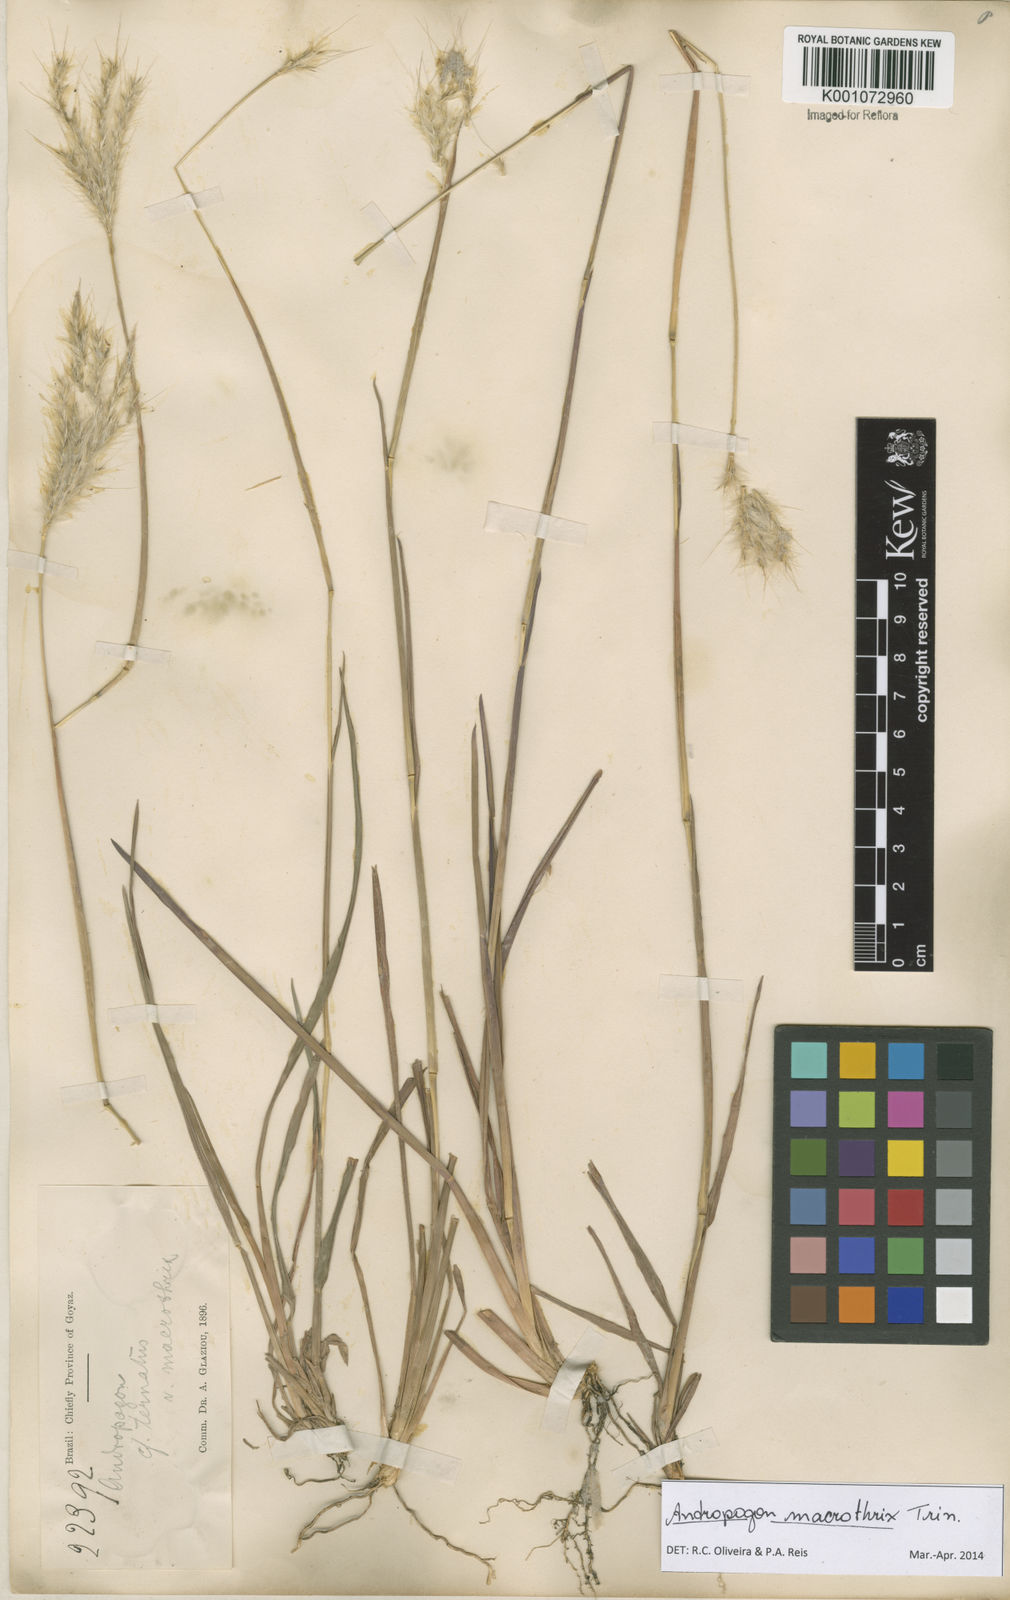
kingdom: Plantae
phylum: Tracheophyta
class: Liliopsida
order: Poales
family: Poaceae
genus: Andropogon
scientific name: Andropogon macrothrix
